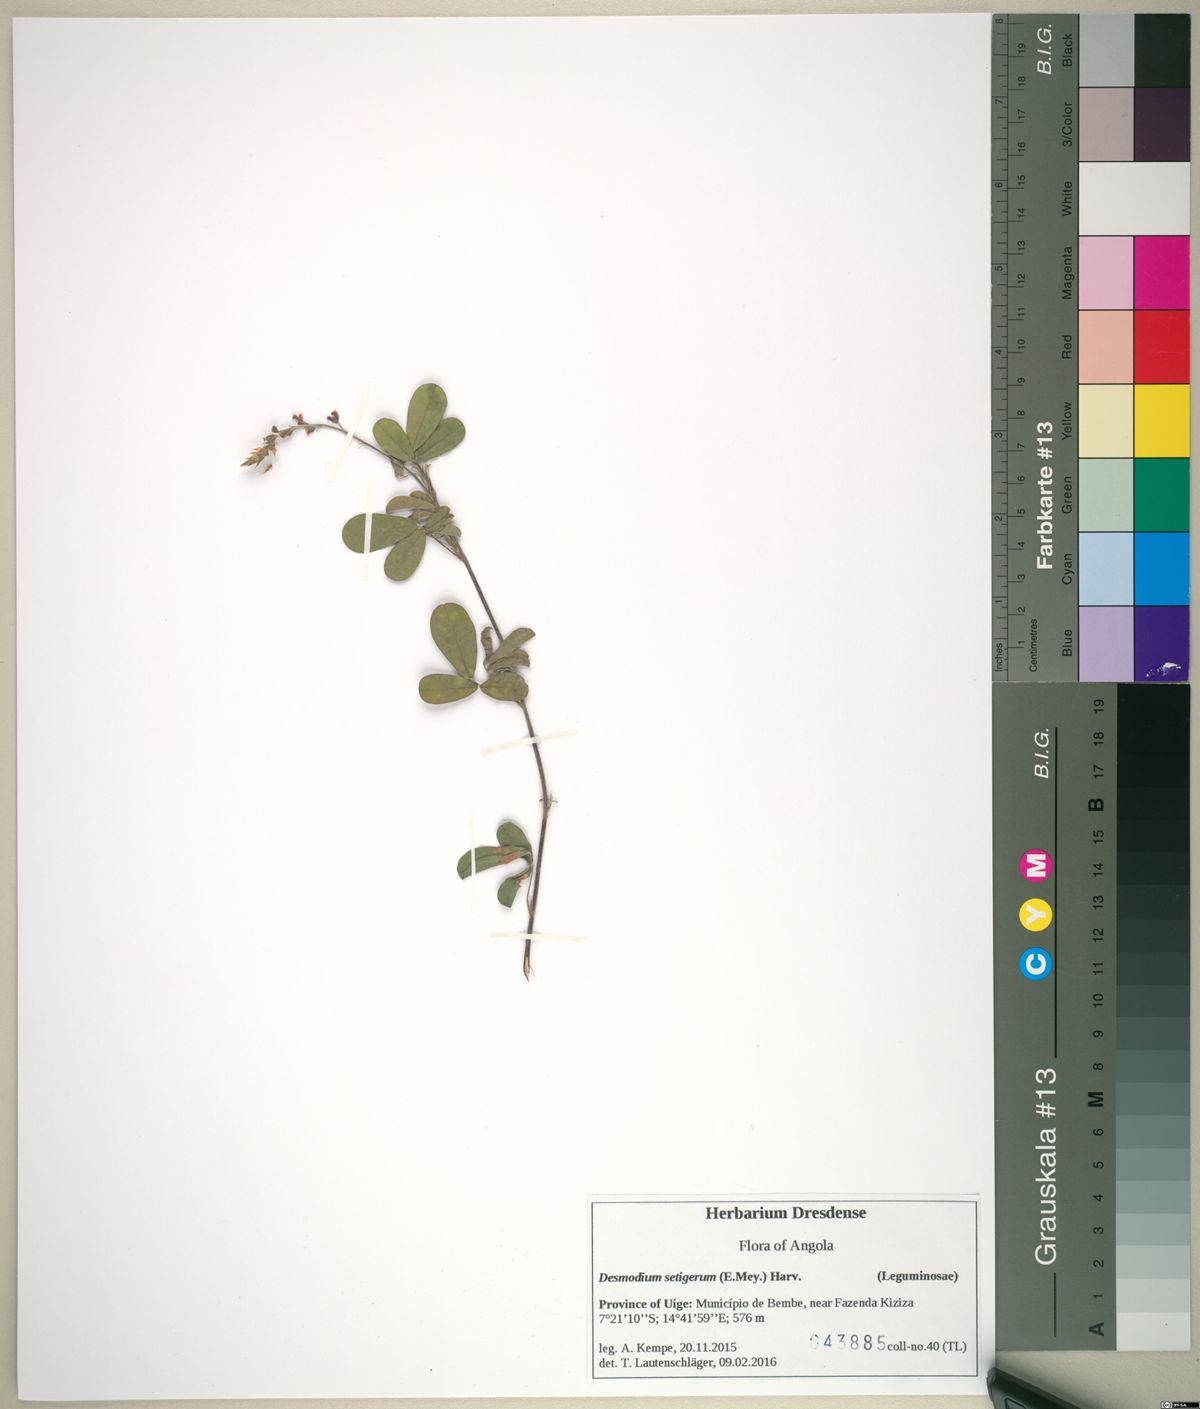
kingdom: Plantae
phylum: Tracheophyta
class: Magnoliopsida
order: Fabales
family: Fabaceae
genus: Grona
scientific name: Grona ramosissima
